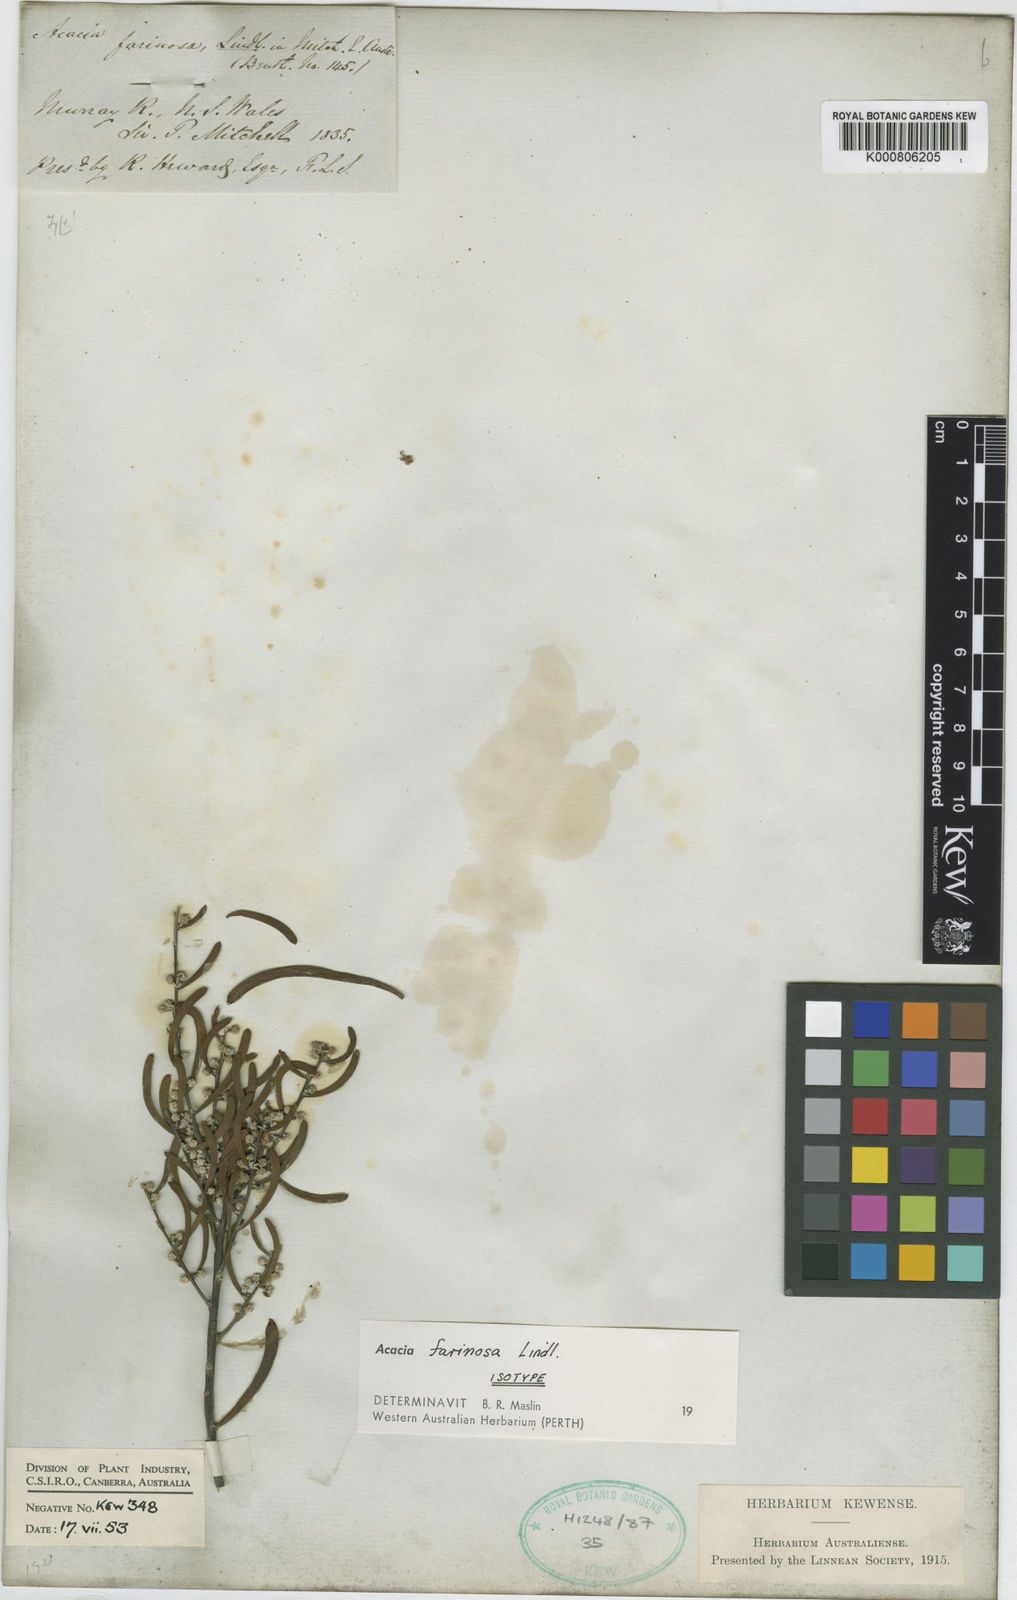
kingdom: Plantae
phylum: Tracheophyta
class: Magnoliopsida
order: Fabales
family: Fabaceae
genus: Acacia
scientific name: Acacia farinosa
